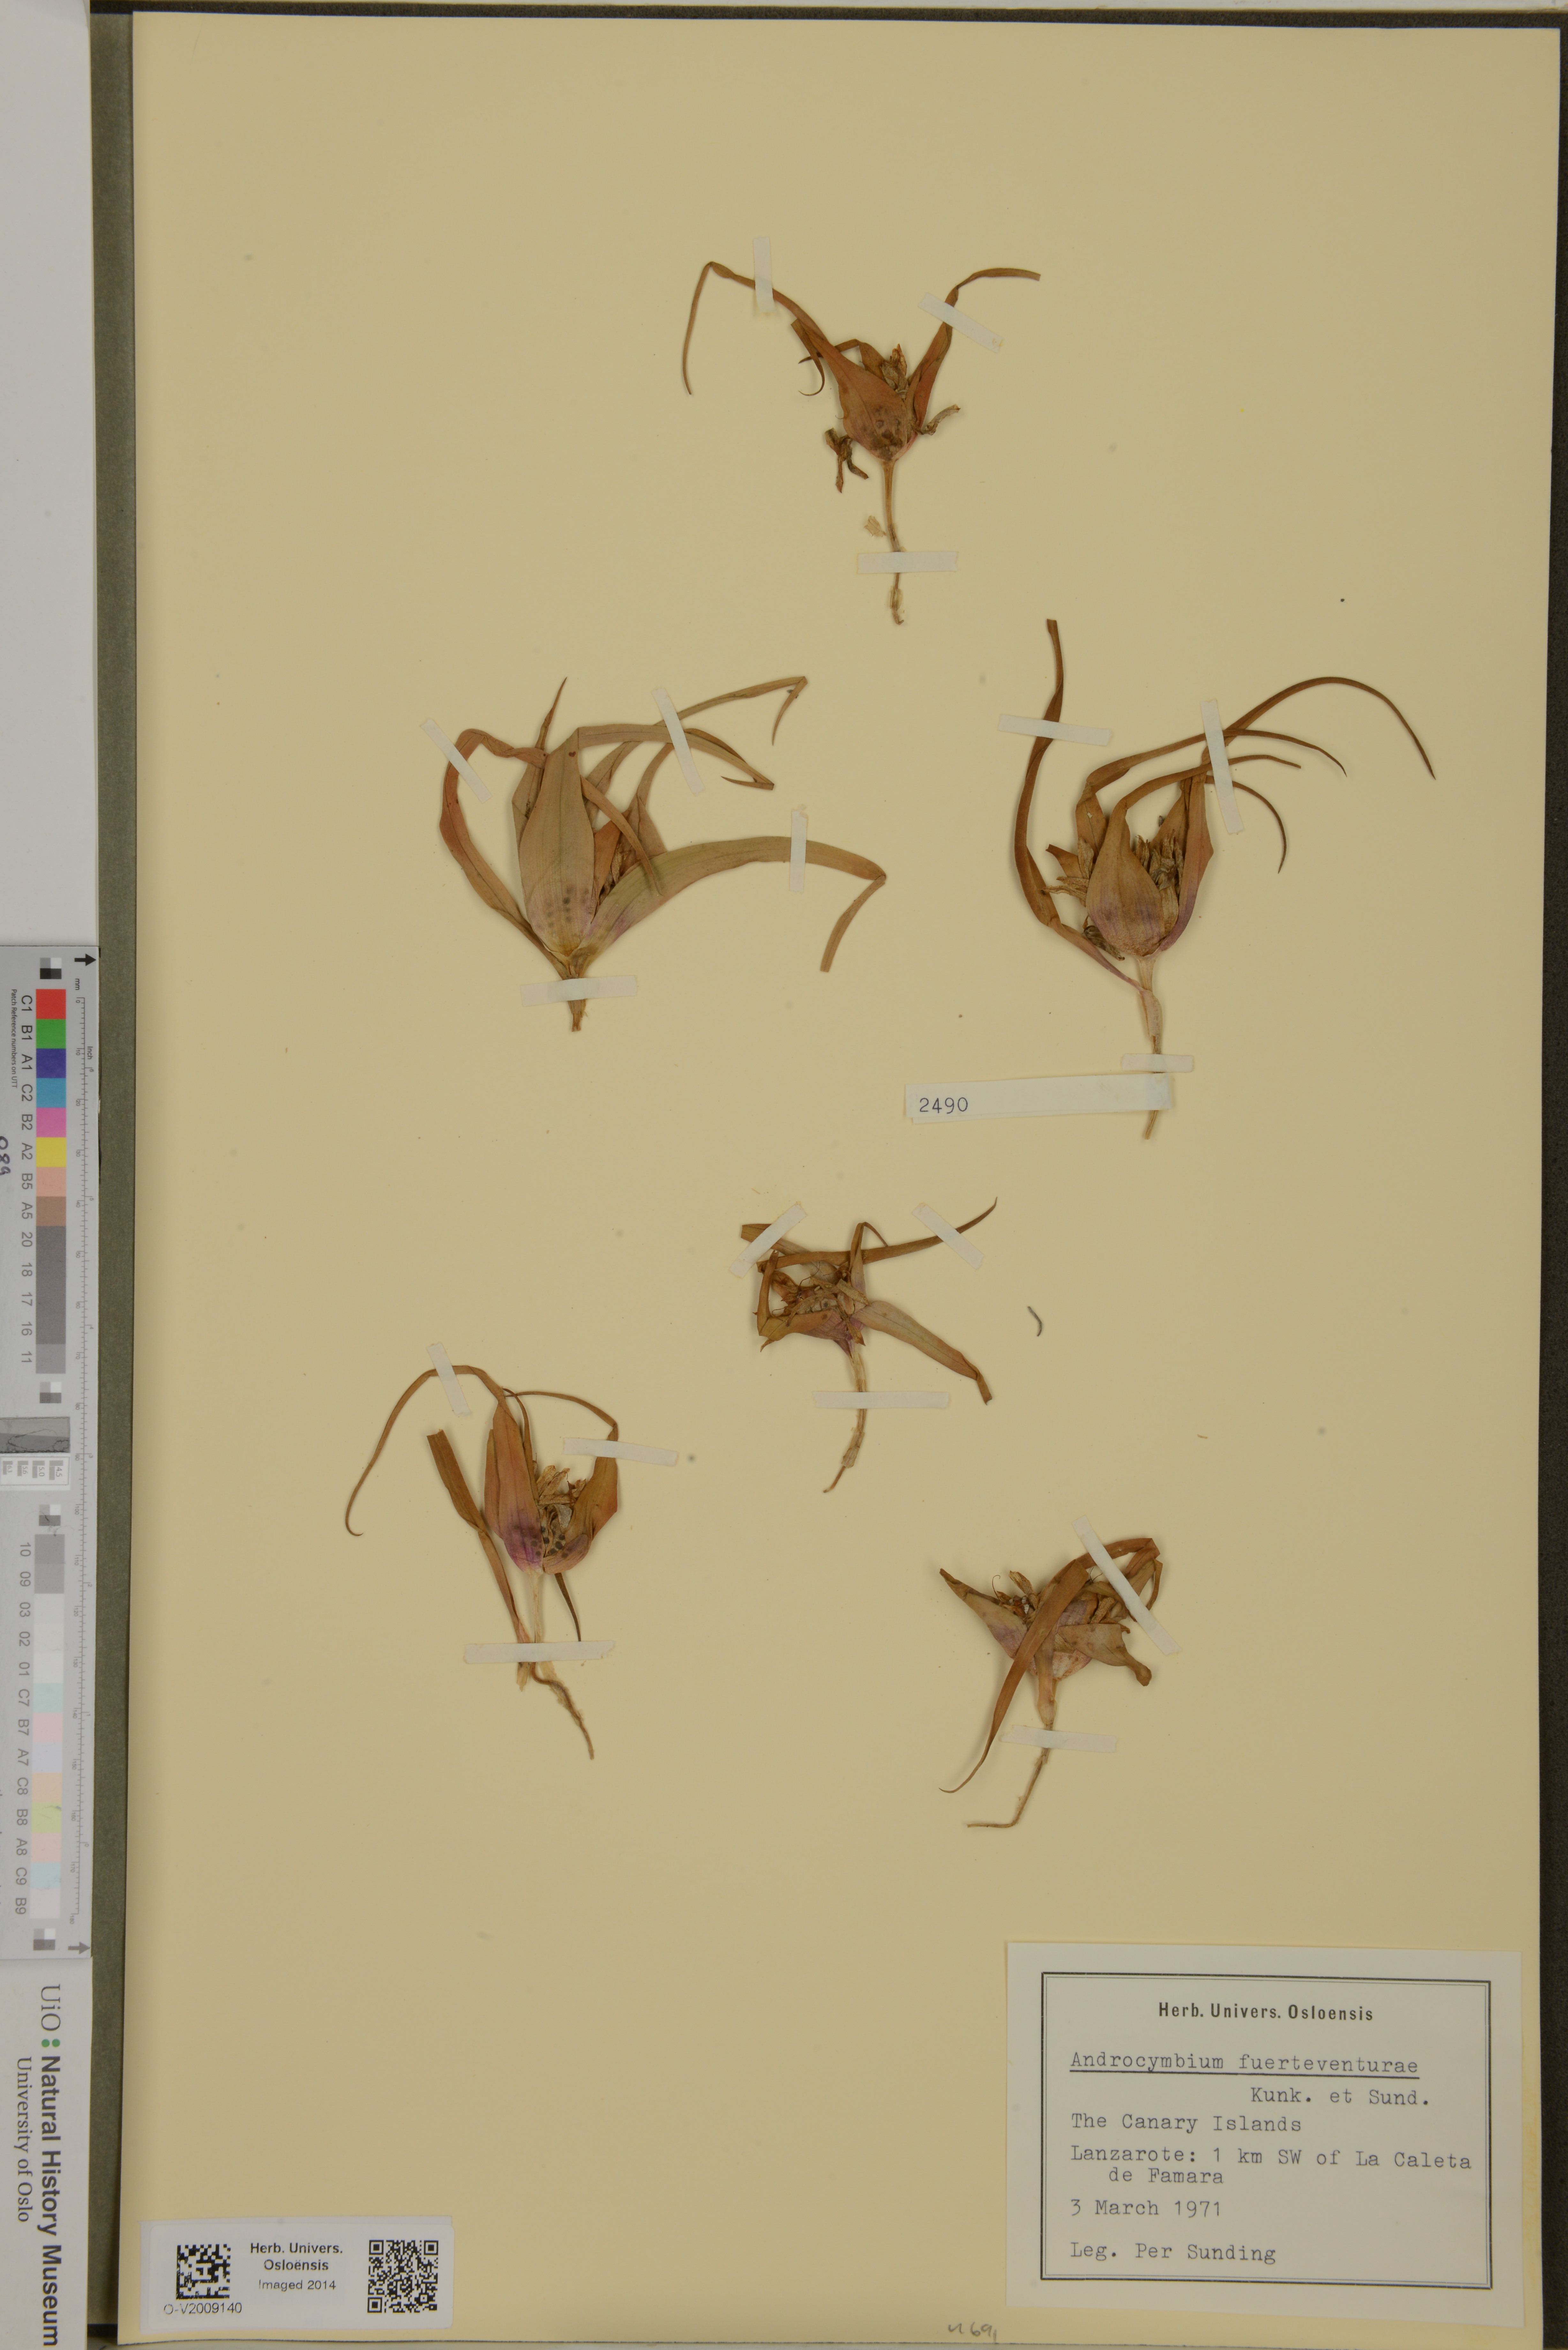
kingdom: Plantae
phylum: Tracheophyta
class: Liliopsida
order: Liliales
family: Colchicaceae
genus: Colchicum
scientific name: Colchicum psammophilum
